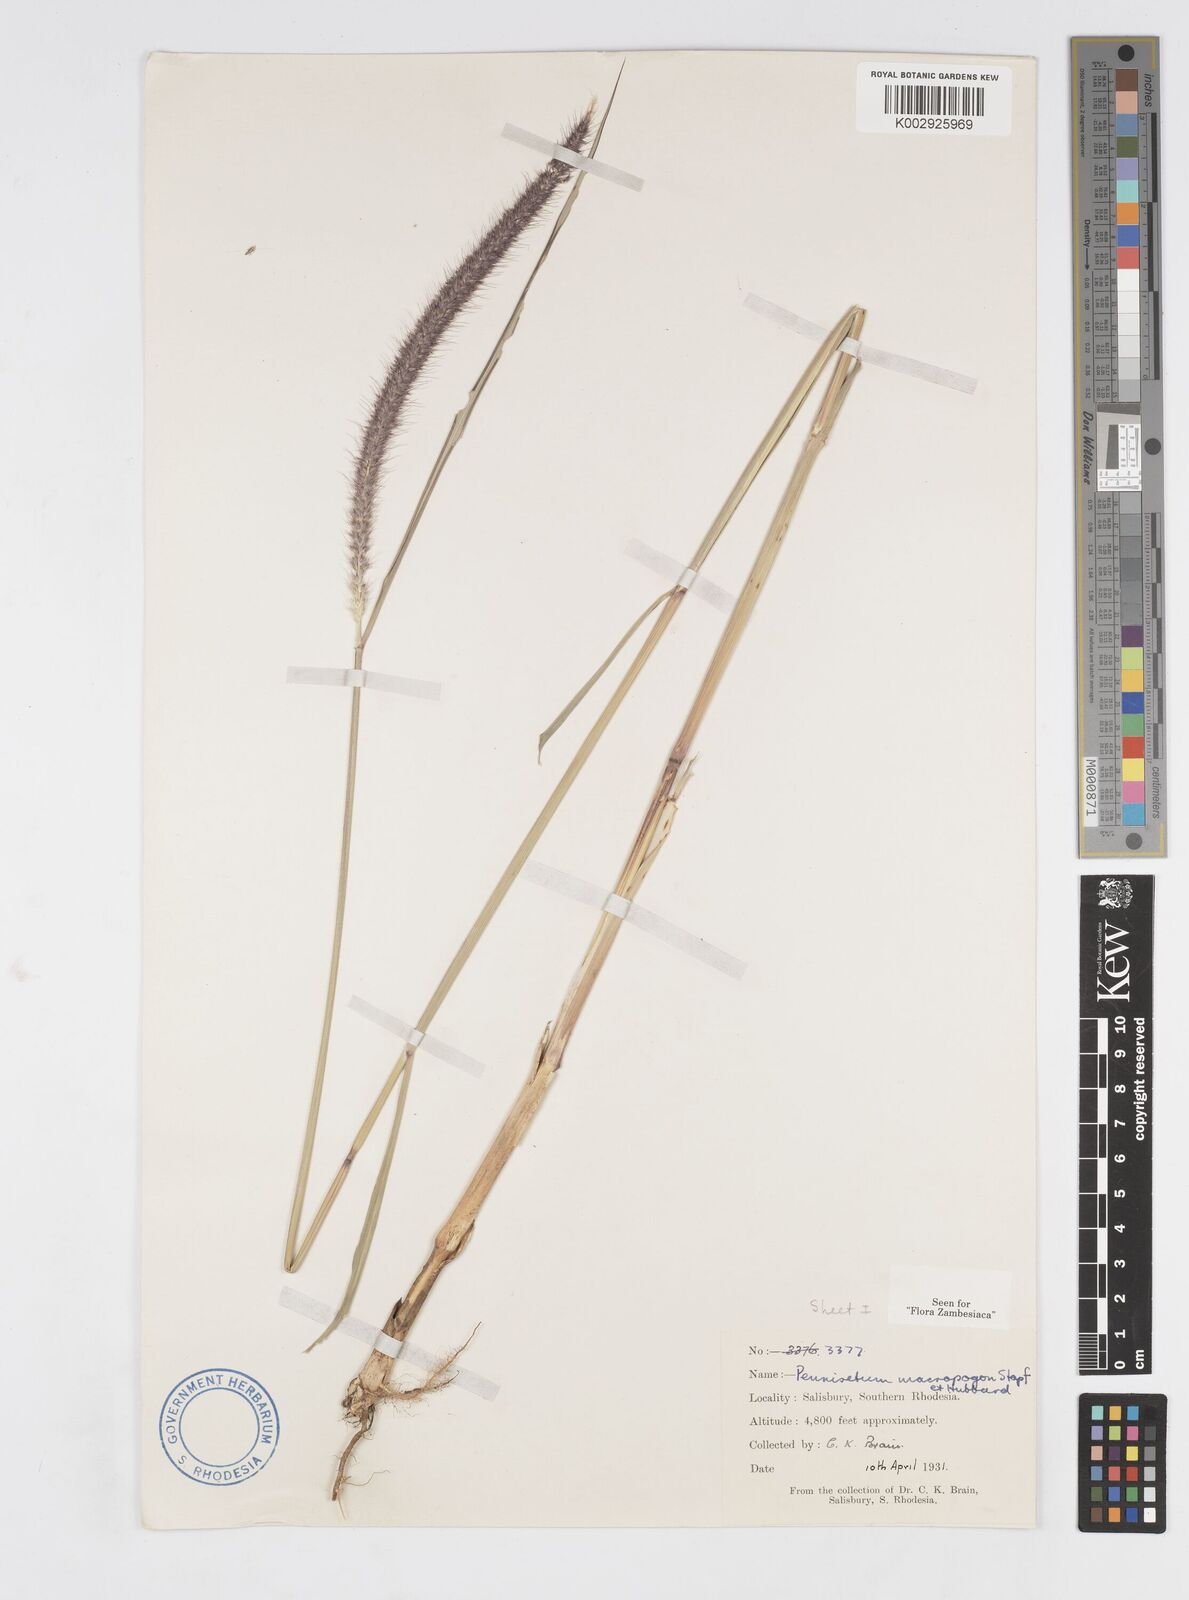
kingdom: Plantae
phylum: Tracheophyta
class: Liliopsida
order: Poales
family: Poaceae
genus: Cenchrus
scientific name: Cenchrus caudatus
